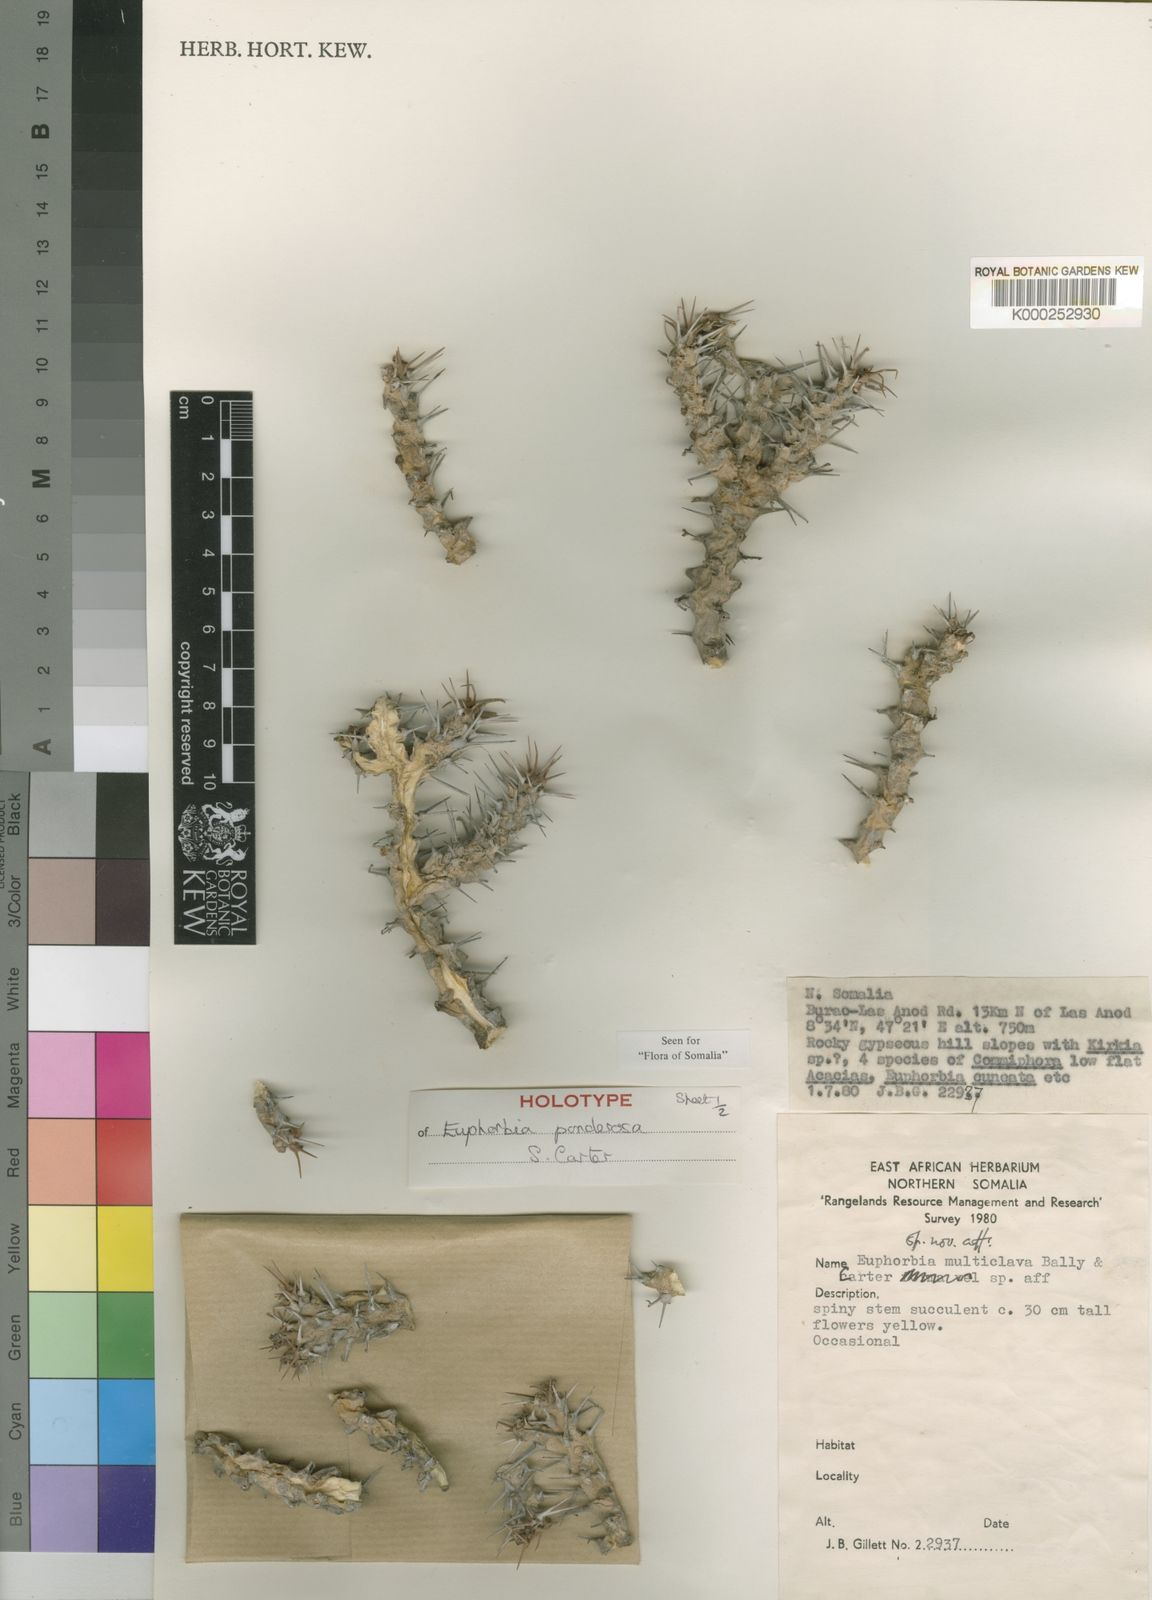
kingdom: Plantae
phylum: Tracheophyta
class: Magnoliopsida
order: Malpighiales
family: Euphorbiaceae
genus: Euphorbia
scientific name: Euphorbia ponderosa
